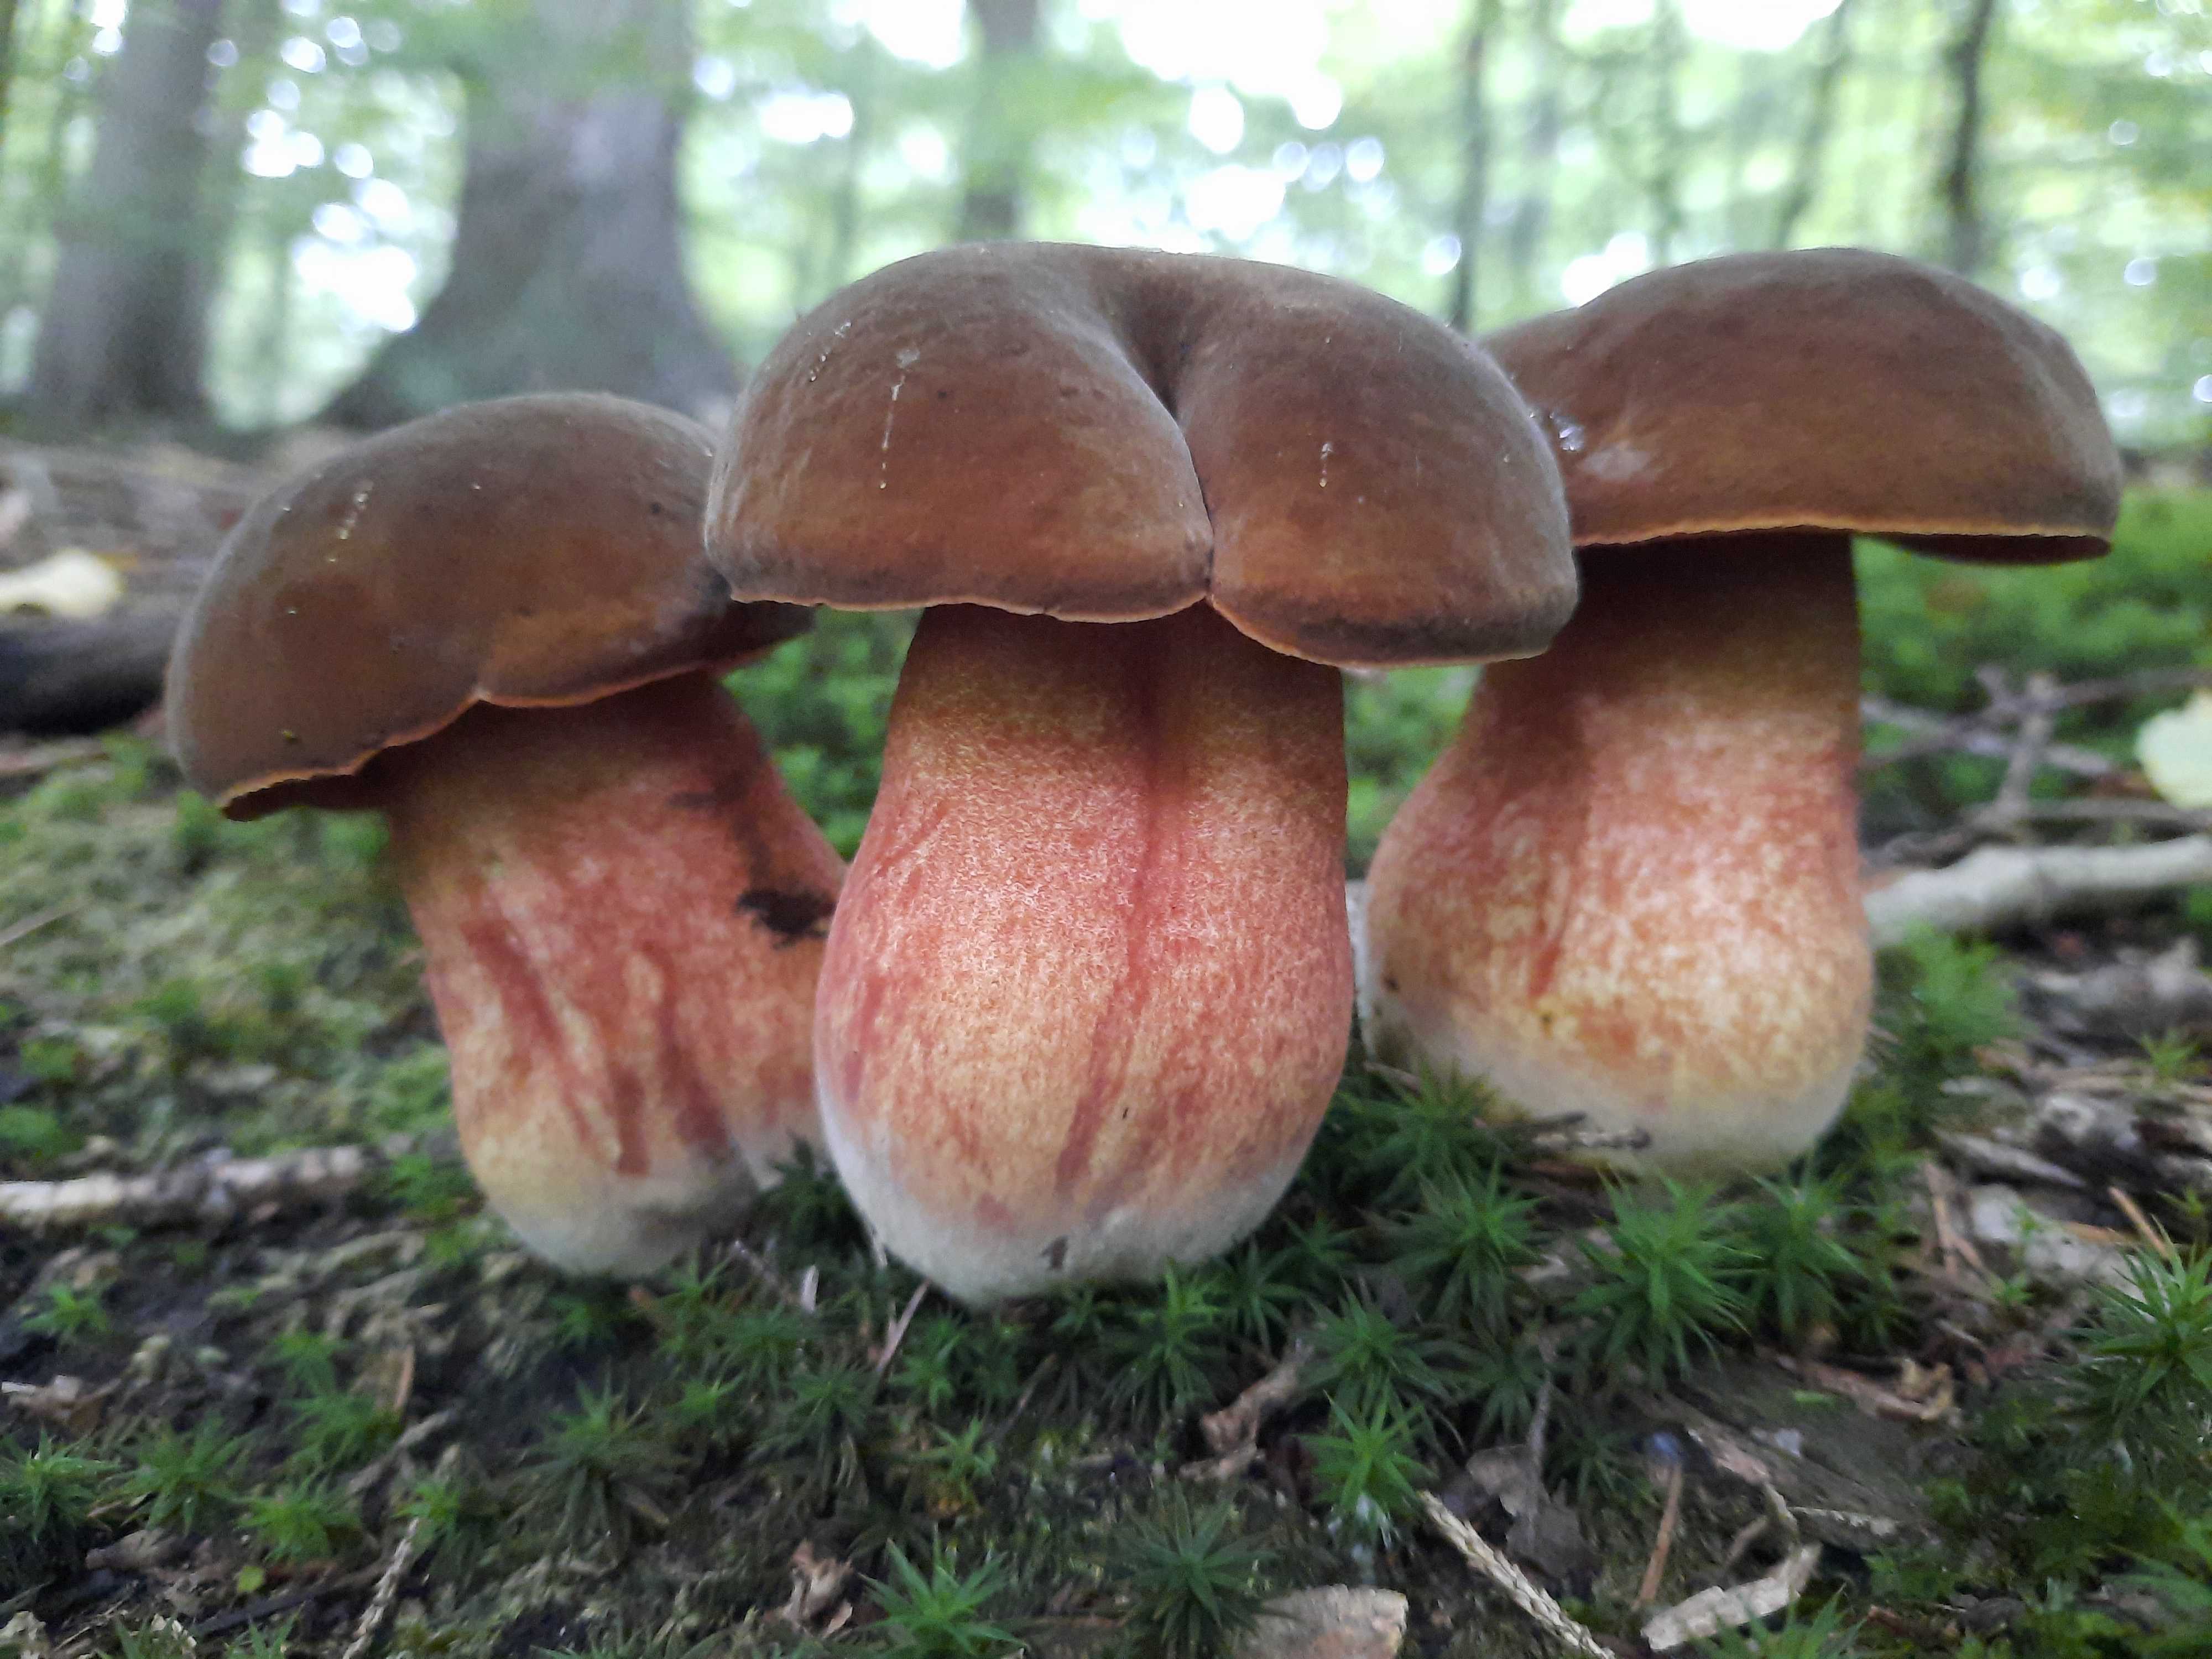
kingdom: Fungi
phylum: Basidiomycota
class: Agaricomycetes
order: Boletales
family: Boletaceae
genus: Neoboletus
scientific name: Neoboletus erythropus
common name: punktstokket indigorørhat
